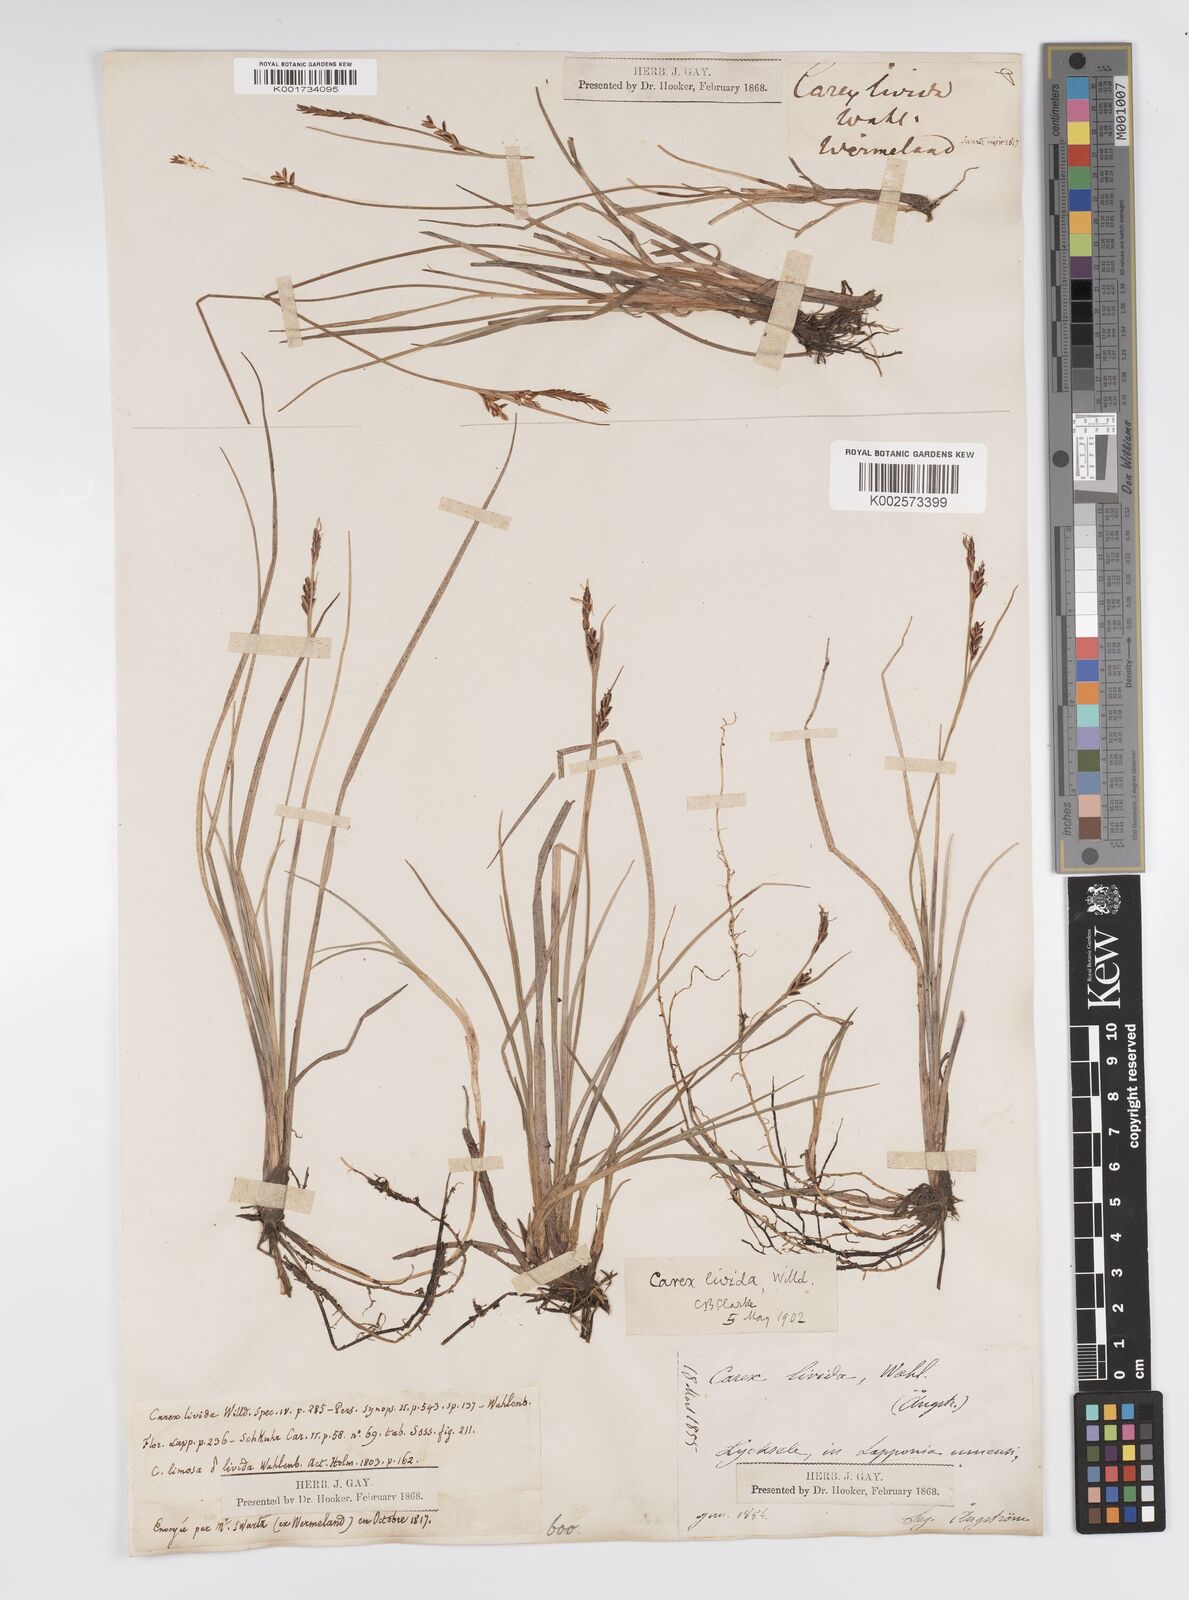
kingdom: Plantae
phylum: Tracheophyta
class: Liliopsida
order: Poales
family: Cyperaceae
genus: Carex
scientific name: Carex livida
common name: Livid sedge
